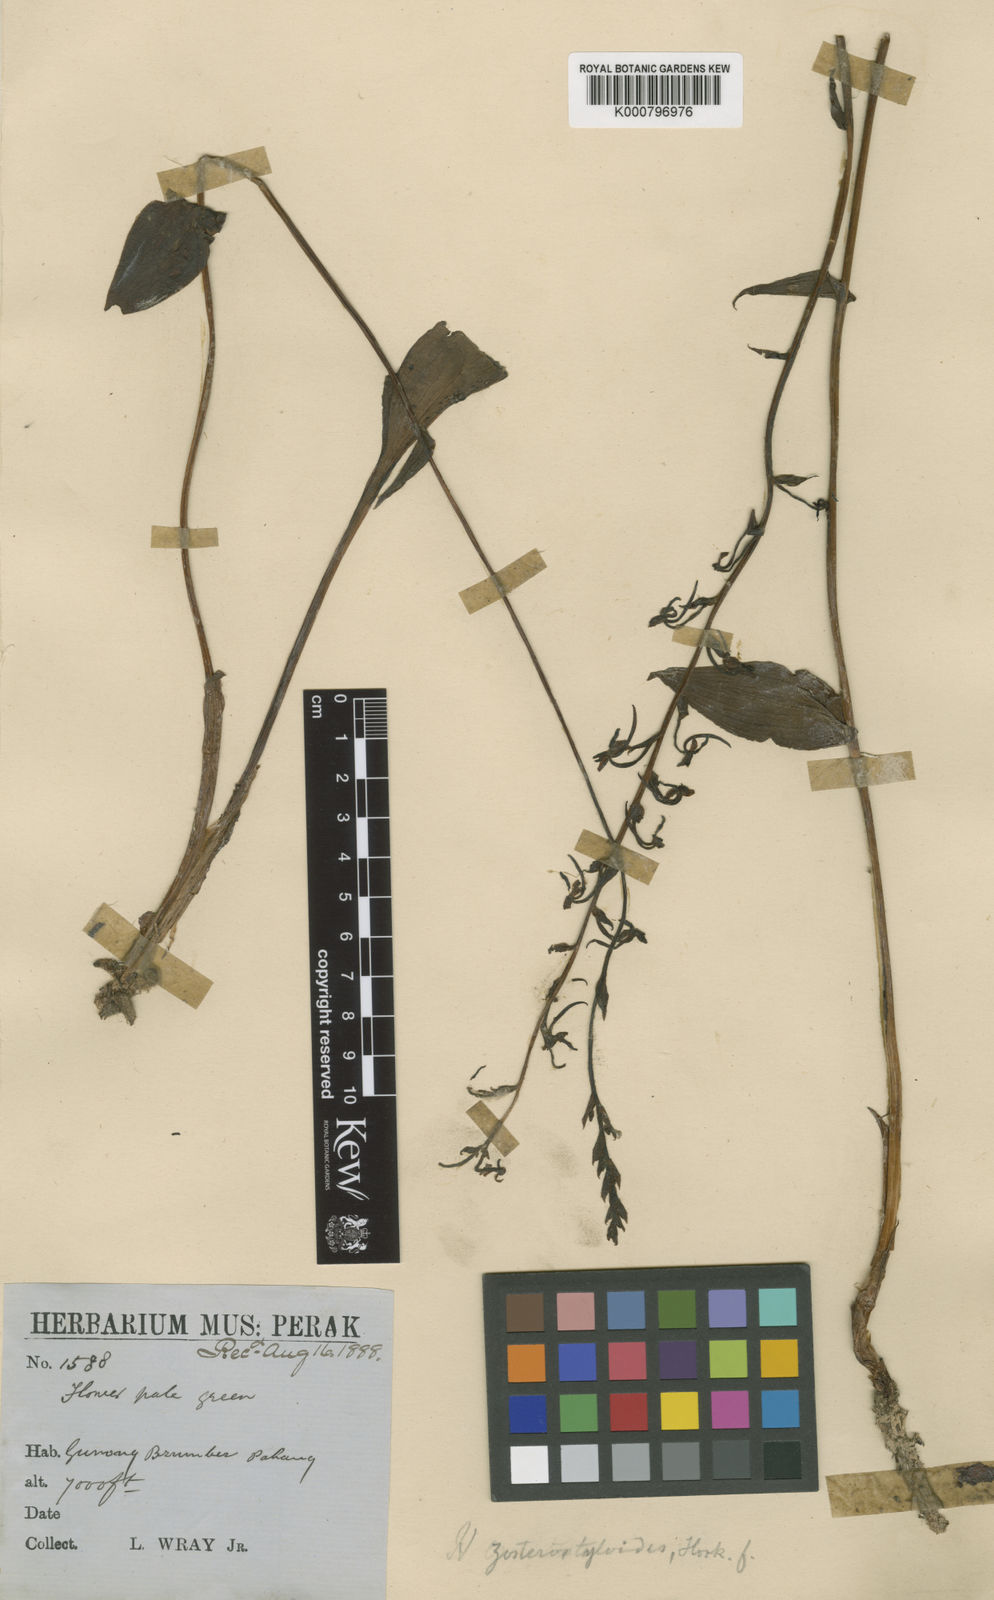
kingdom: Plantae
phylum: Tracheophyta
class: Liliopsida
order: Asparagales
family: Orchidaceae
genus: Platanthera
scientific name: Platanthera angustata
